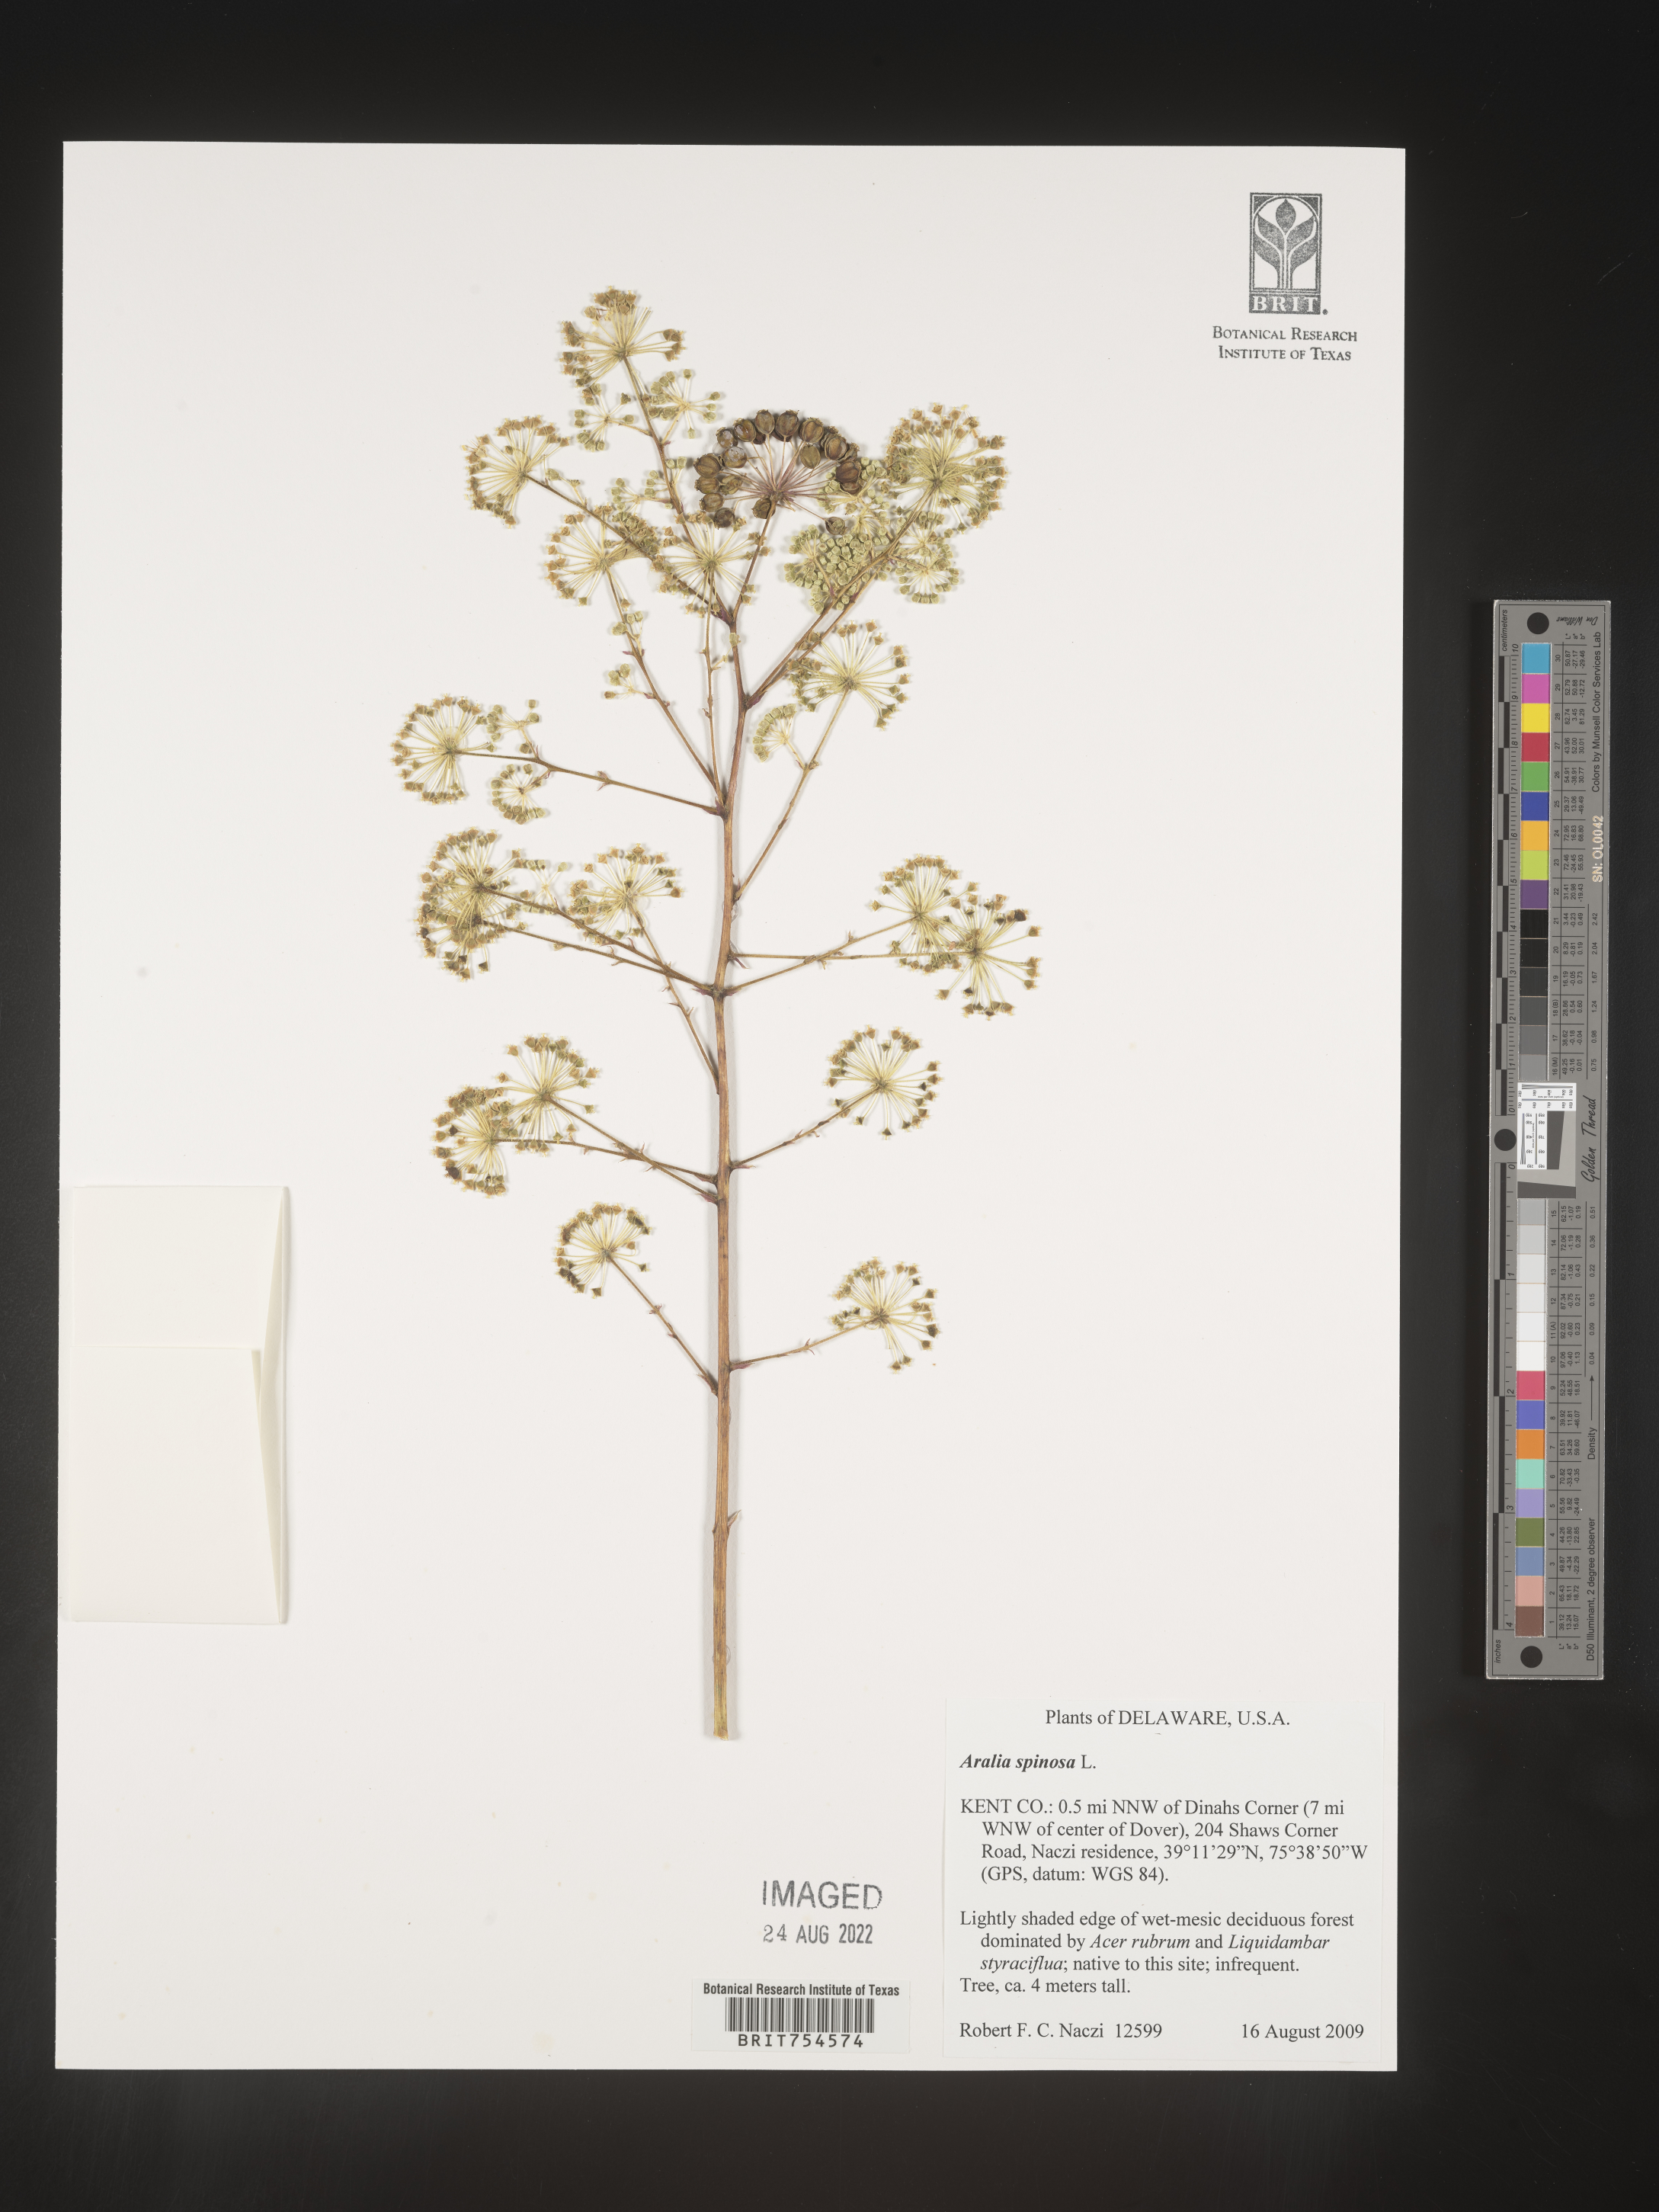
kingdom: Plantae
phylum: Tracheophyta
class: Magnoliopsida
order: Apiales
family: Araliaceae
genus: Aralia
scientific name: Aralia spinosa
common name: Hercules'-club
